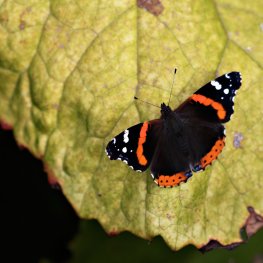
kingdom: Animalia
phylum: Arthropoda
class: Insecta
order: Lepidoptera
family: Nymphalidae
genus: Vanessa
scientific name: Vanessa atalanta
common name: Red Admiral
